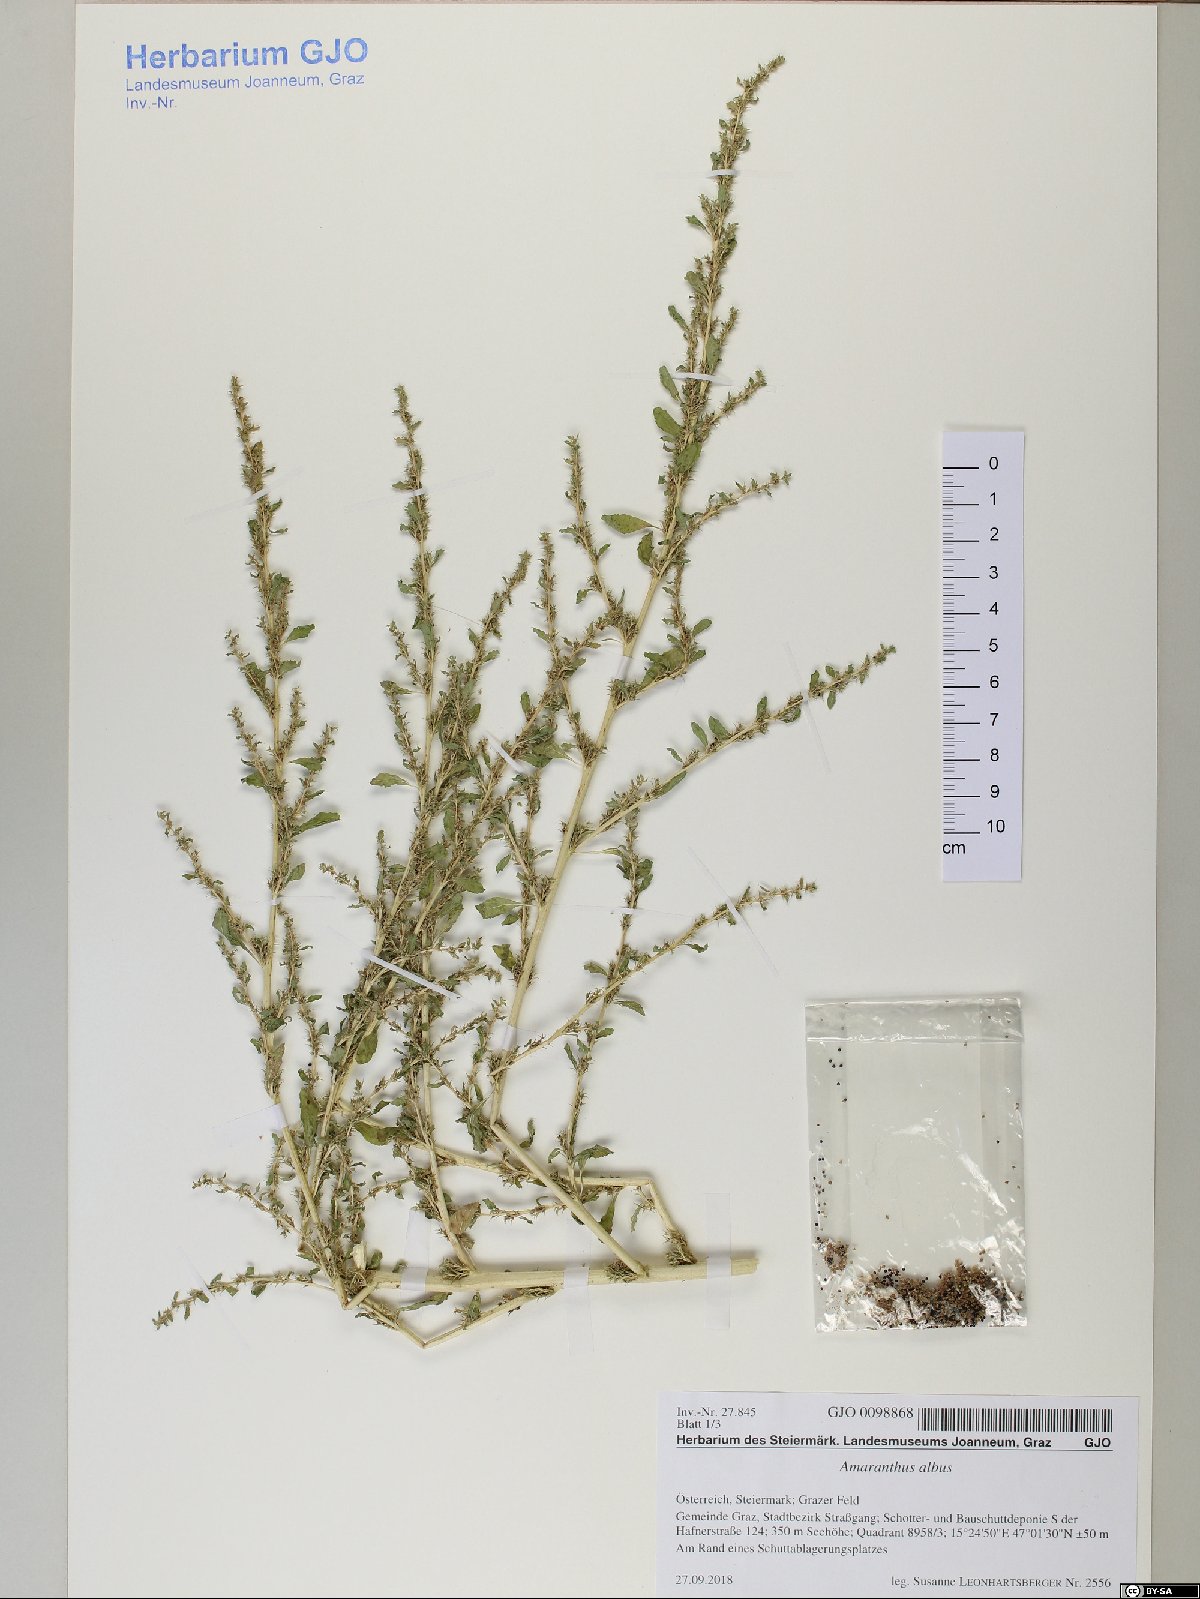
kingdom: Plantae
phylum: Tracheophyta
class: Magnoliopsida
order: Caryophyllales
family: Amaranthaceae
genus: Amaranthus
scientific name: Amaranthus albus
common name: White pigweed
